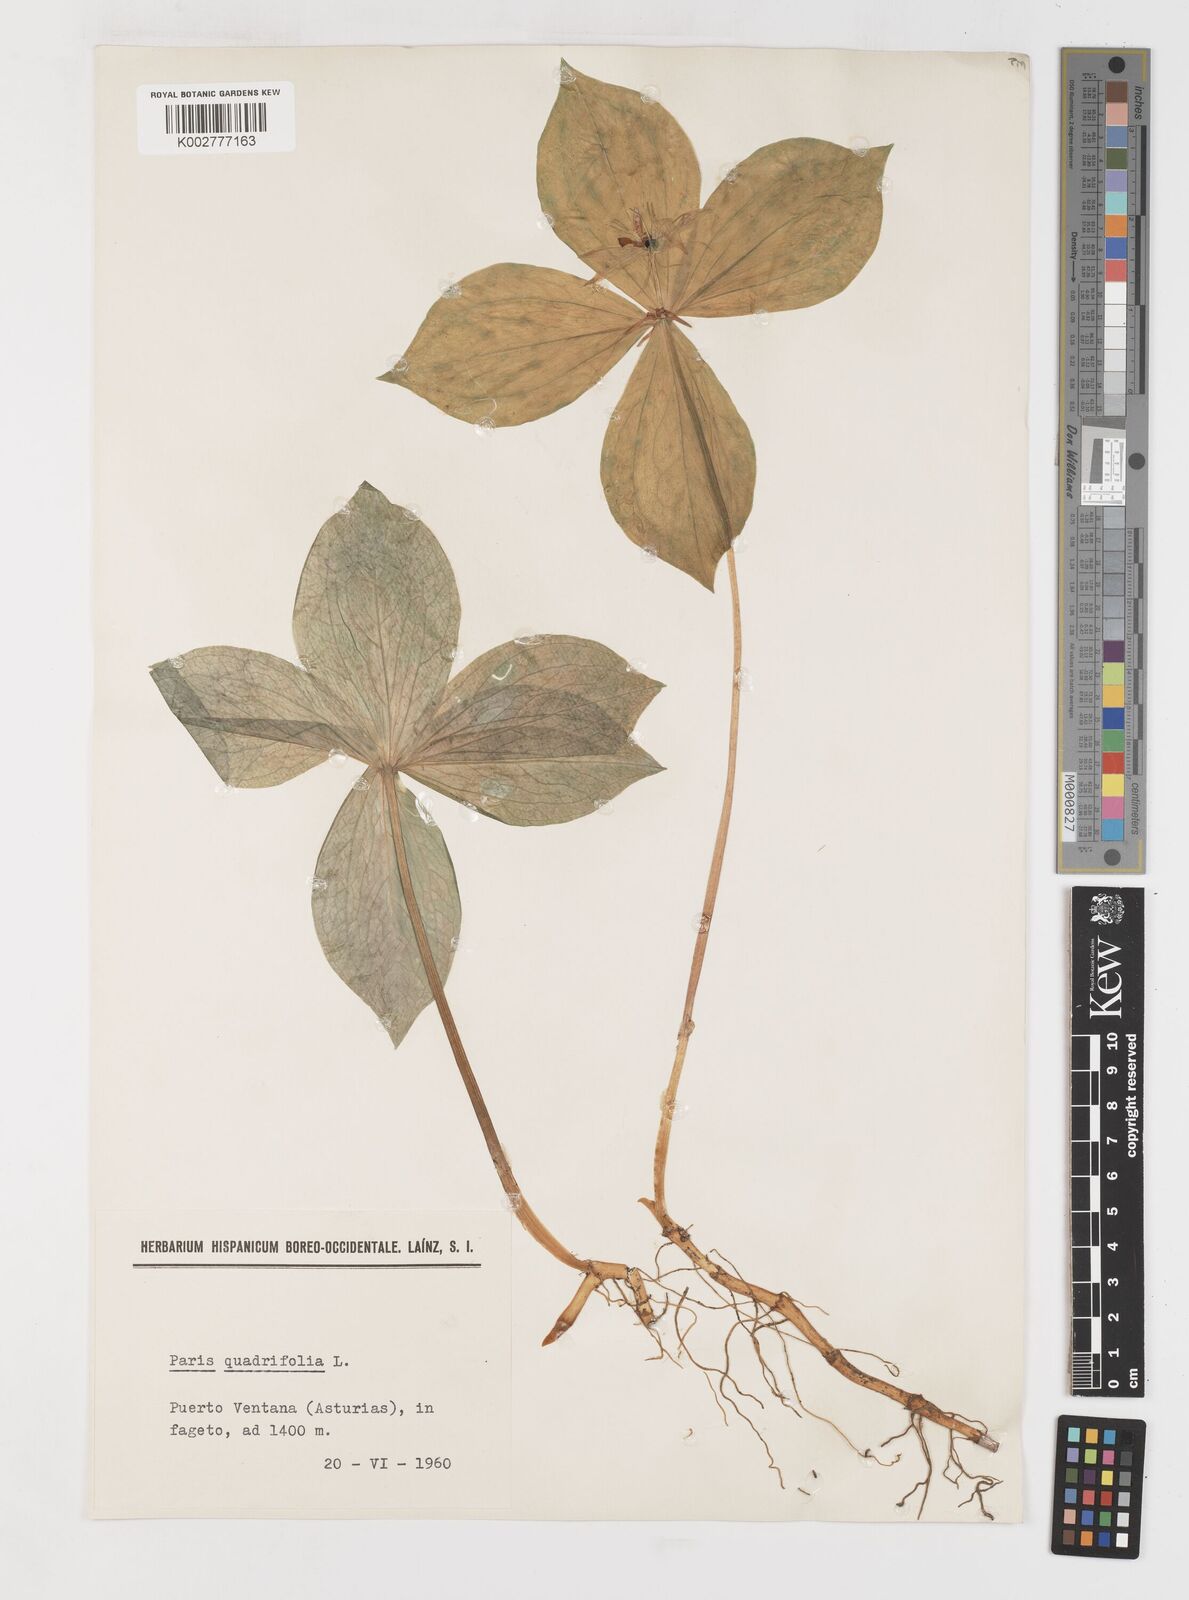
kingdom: Plantae
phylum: Tracheophyta
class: Liliopsida
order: Liliales
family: Melanthiaceae
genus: Paris
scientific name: Paris quadrifolia
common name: Herb-paris
